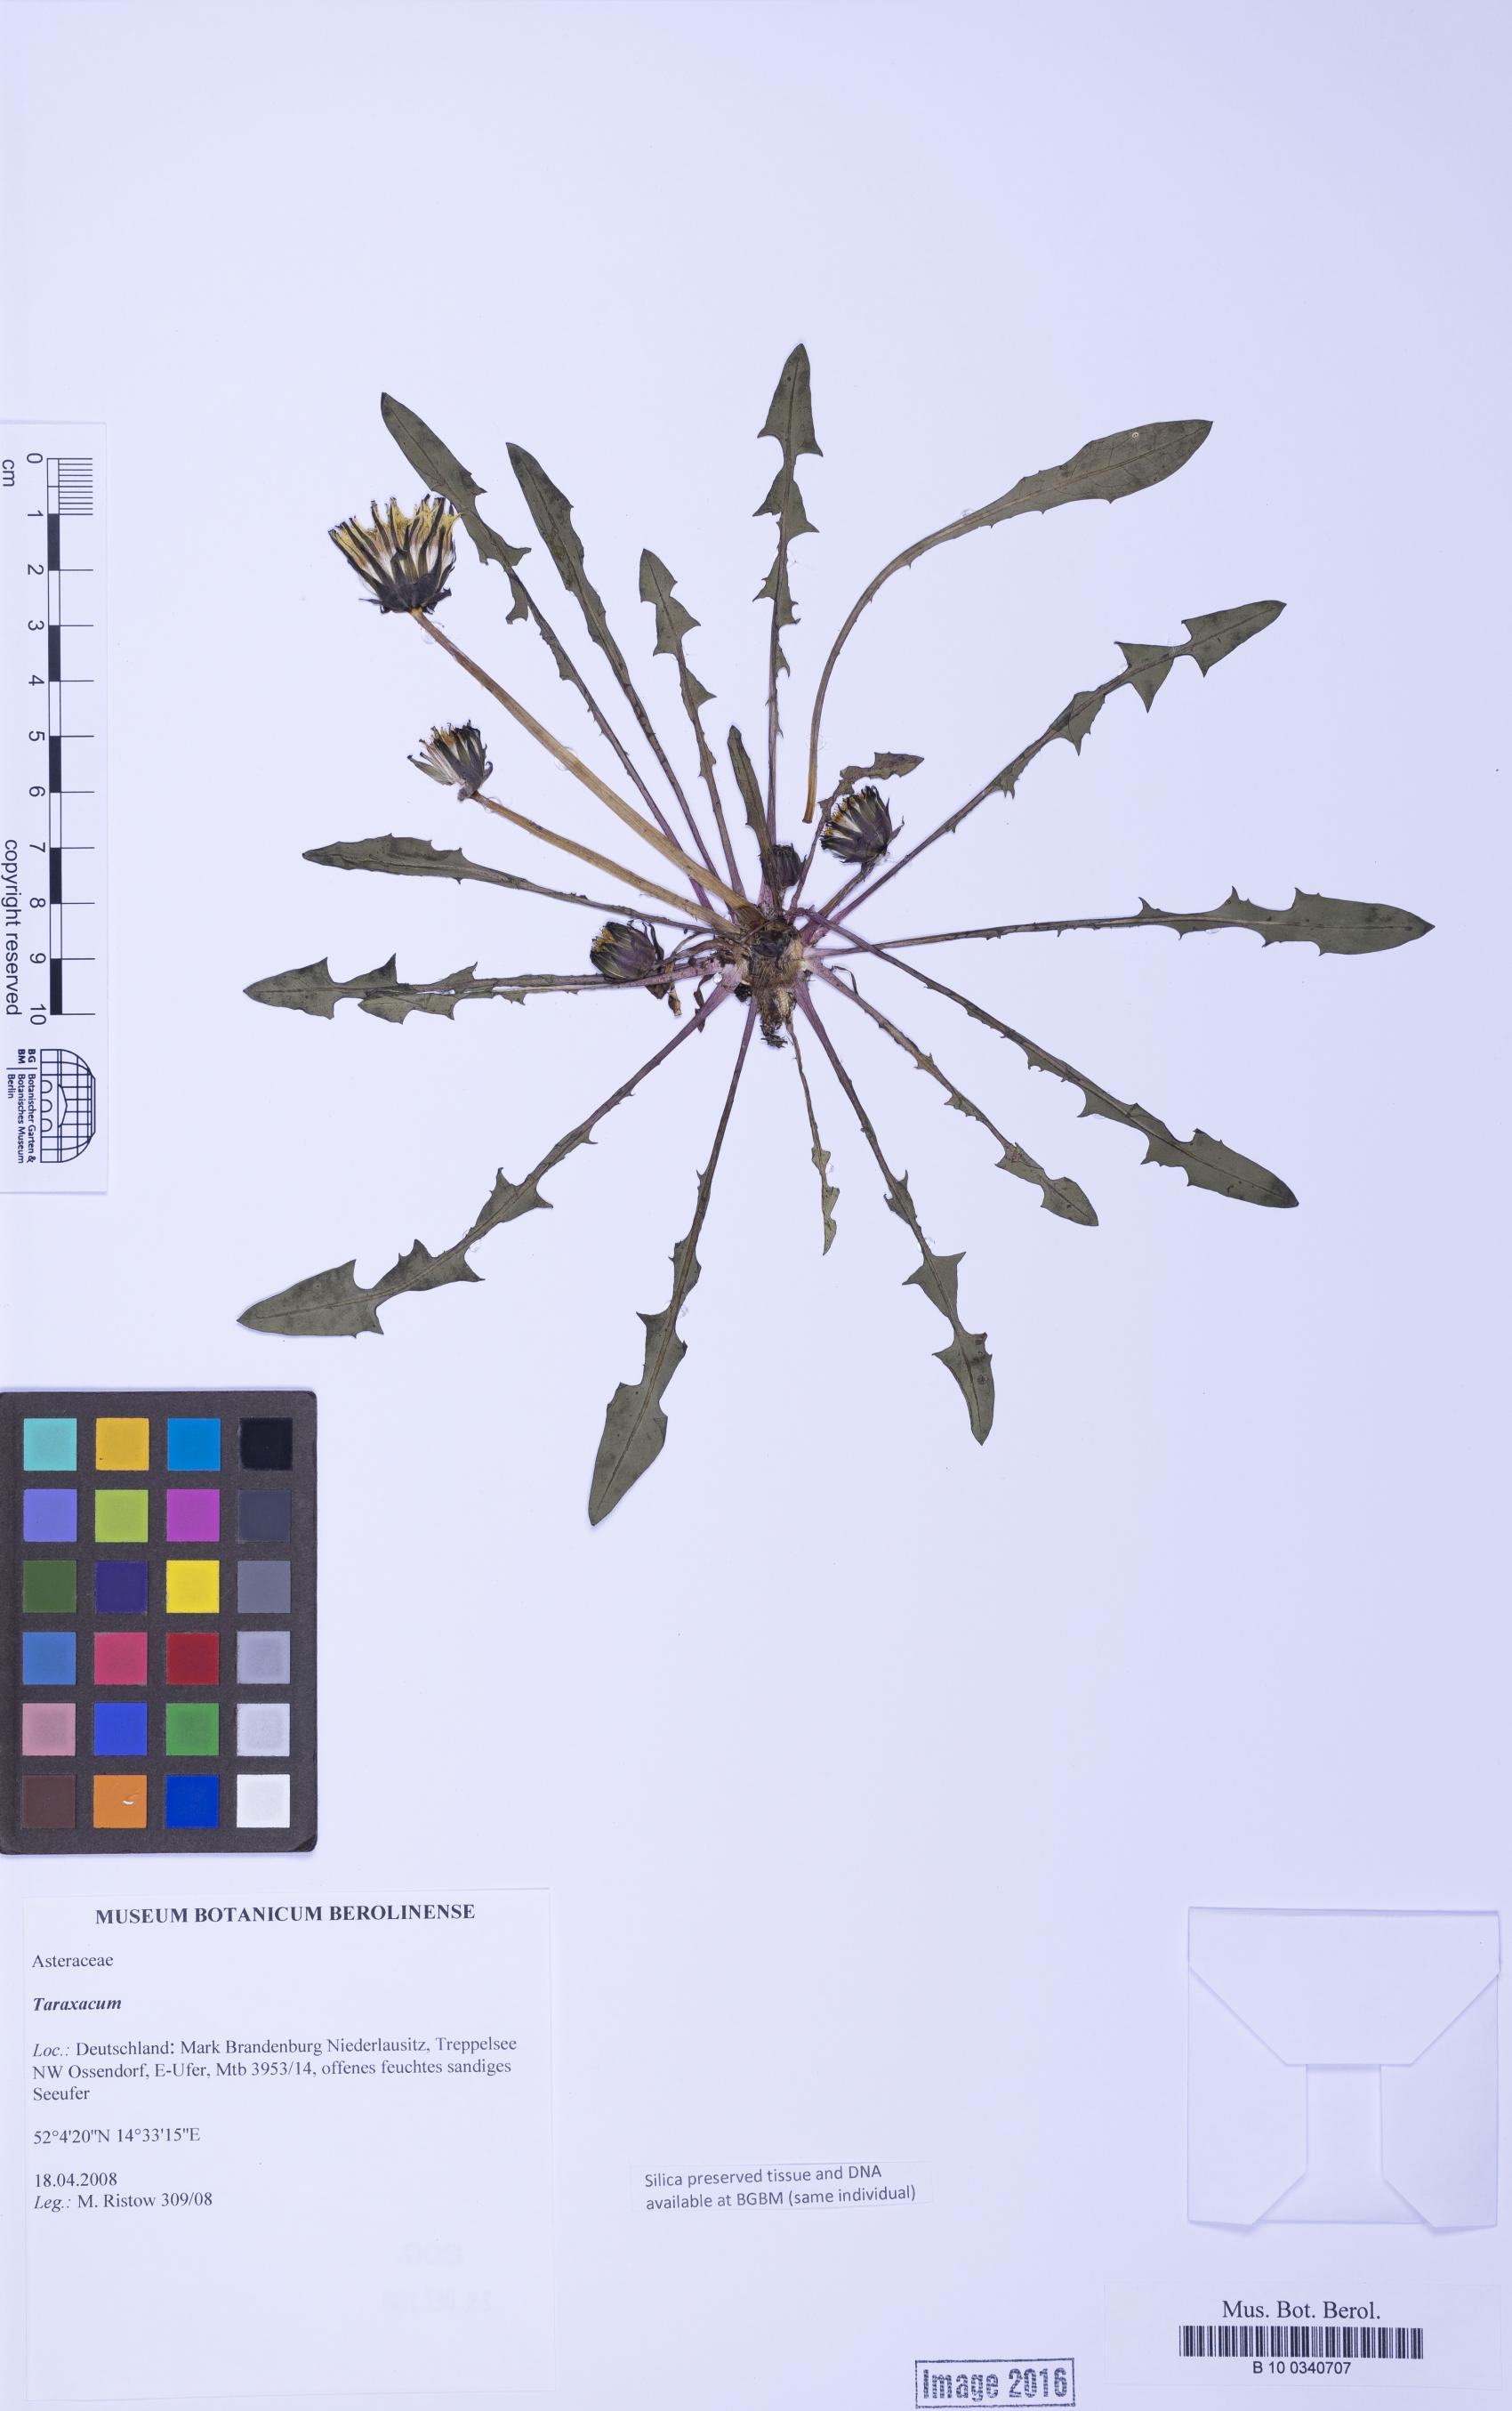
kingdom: Plantae
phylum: Tracheophyta
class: Magnoliopsida
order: Asterales
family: Asteraceae
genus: Taraxacum
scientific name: Taraxacum
